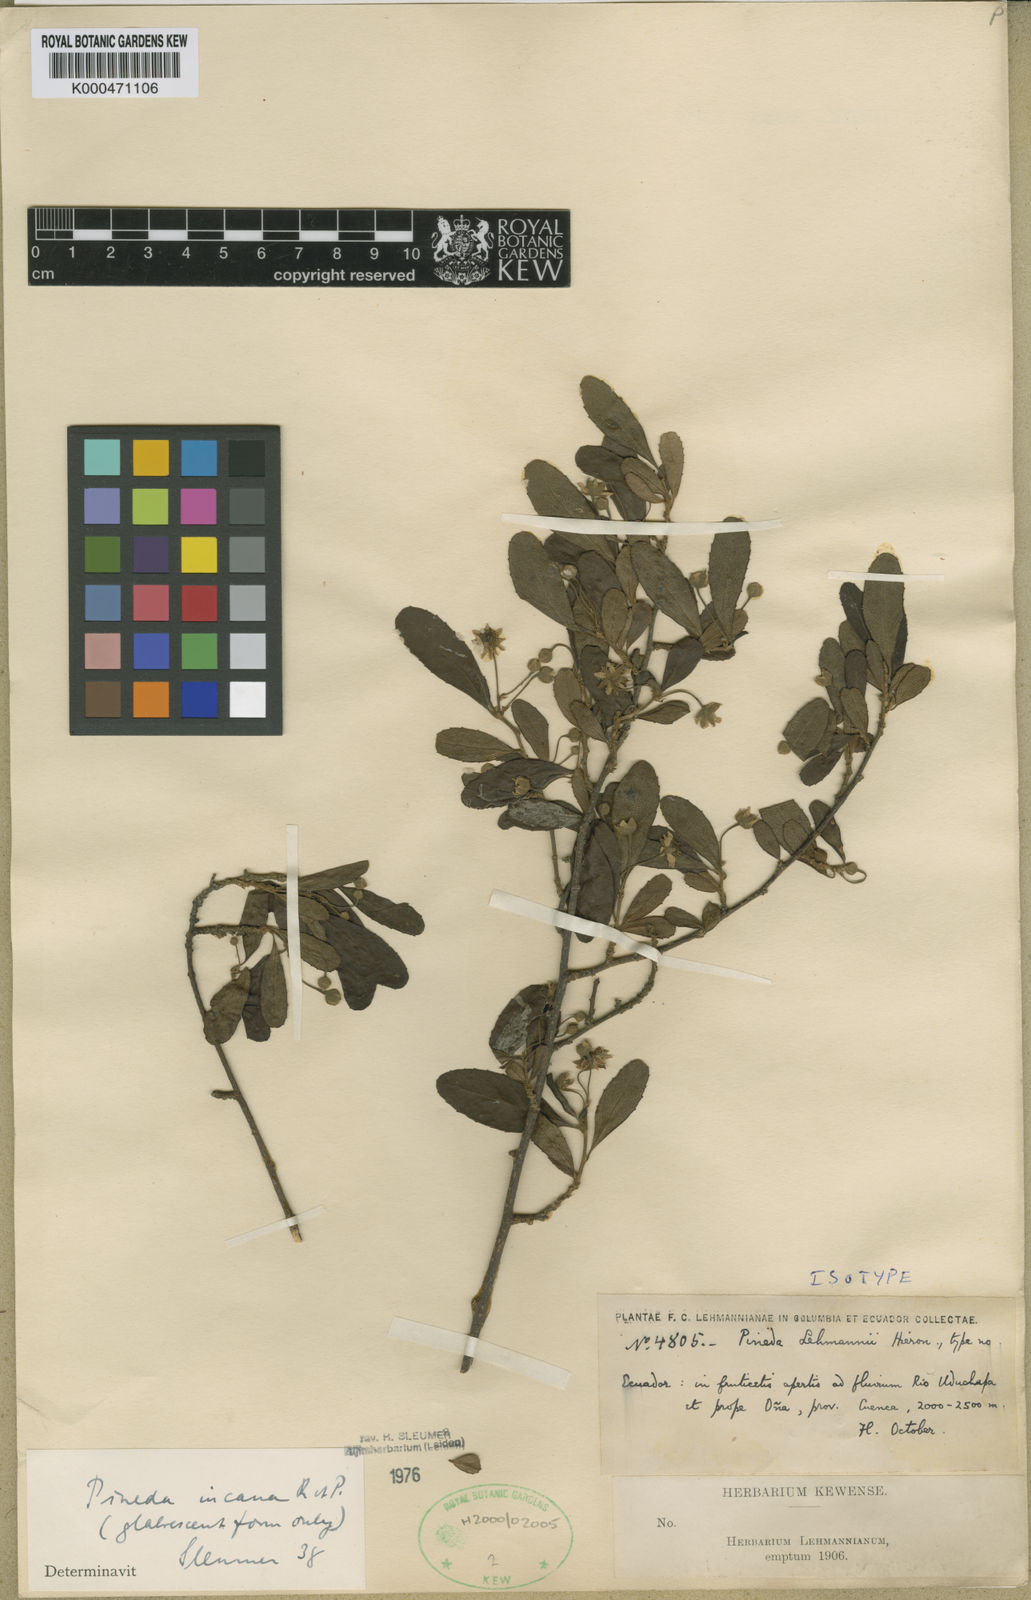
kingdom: Plantae
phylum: Tracheophyta
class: Magnoliopsida
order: Malpighiales
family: Salicaceae
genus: Pineda
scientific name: Pineda incana
